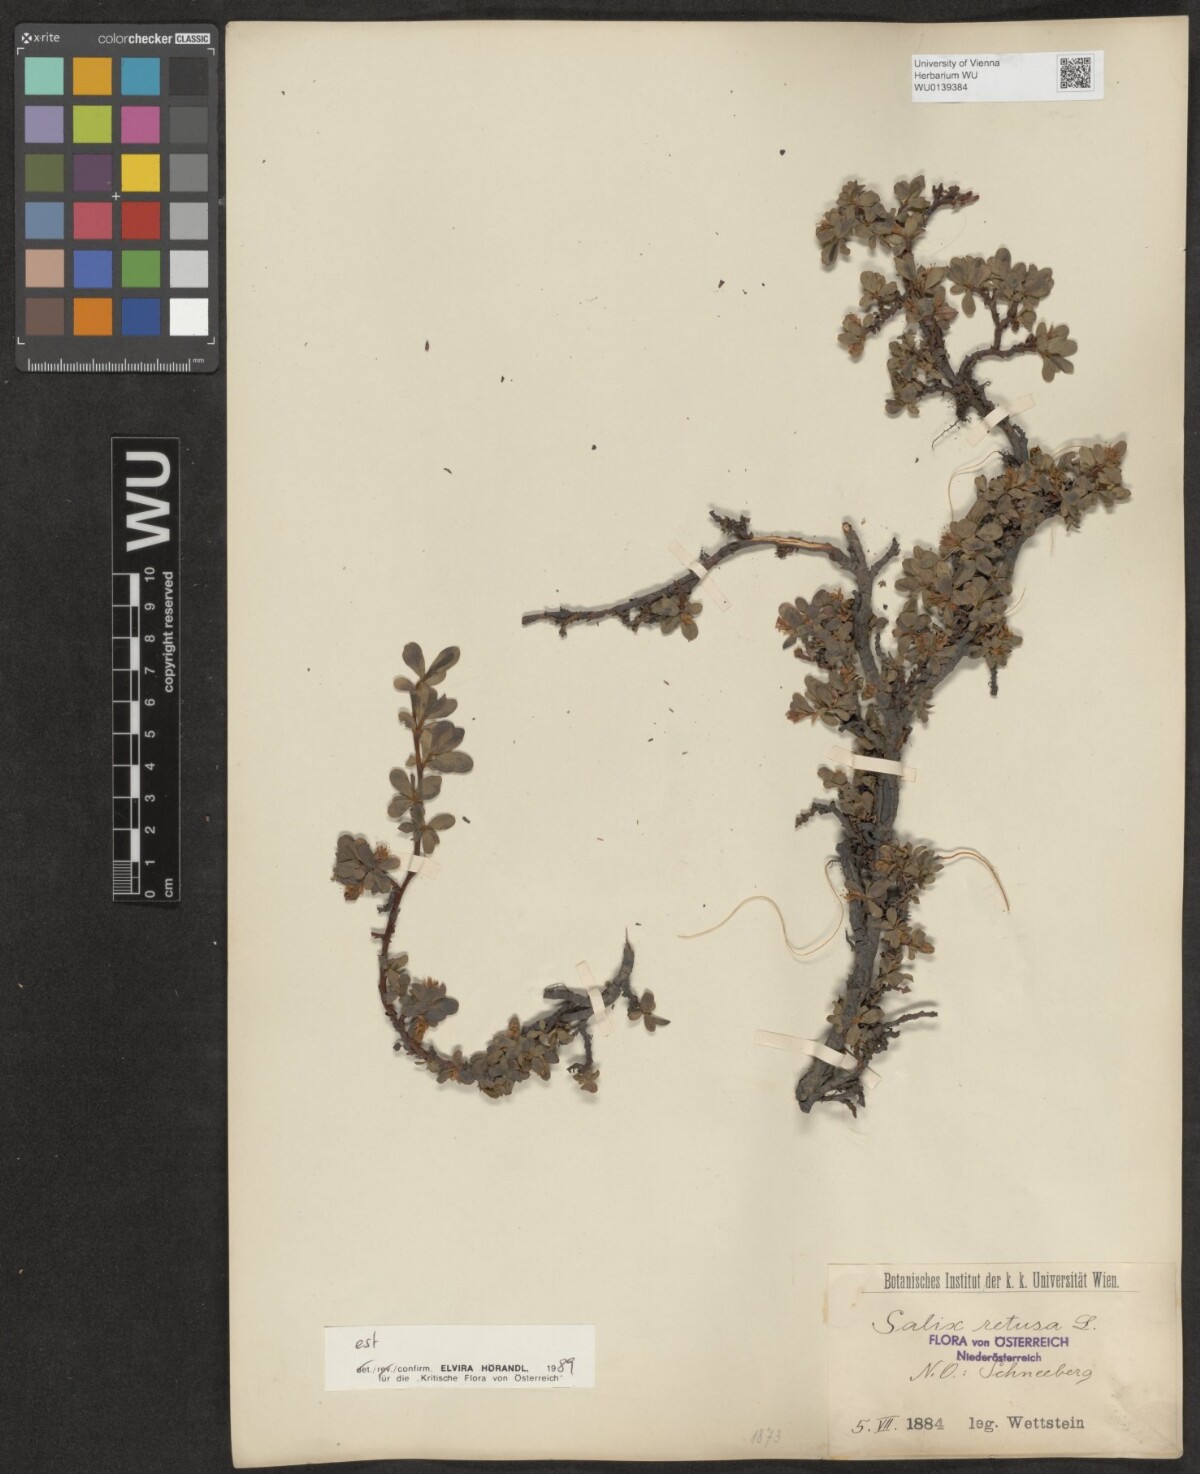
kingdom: Plantae
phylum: Tracheophyta
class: Magnoliopsida
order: Malpighiales
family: Salicaceae
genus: Salix
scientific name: Salix retusa
